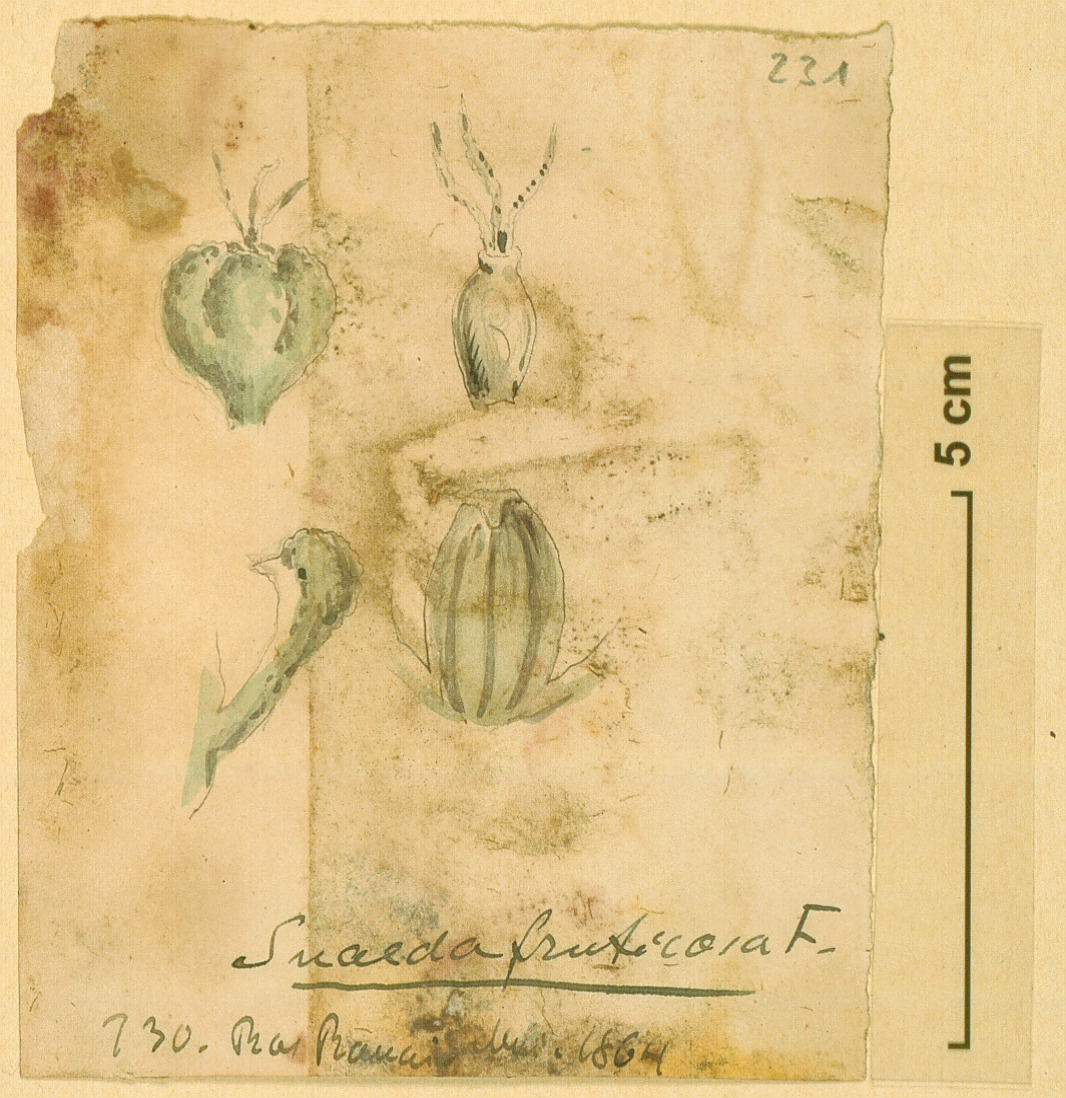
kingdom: Plantae
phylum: Tracheophyta
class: Magnoliopsida
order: Caryophyllales
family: Amaranthaceae
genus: Suaeda
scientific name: Suaeda fruticosa
